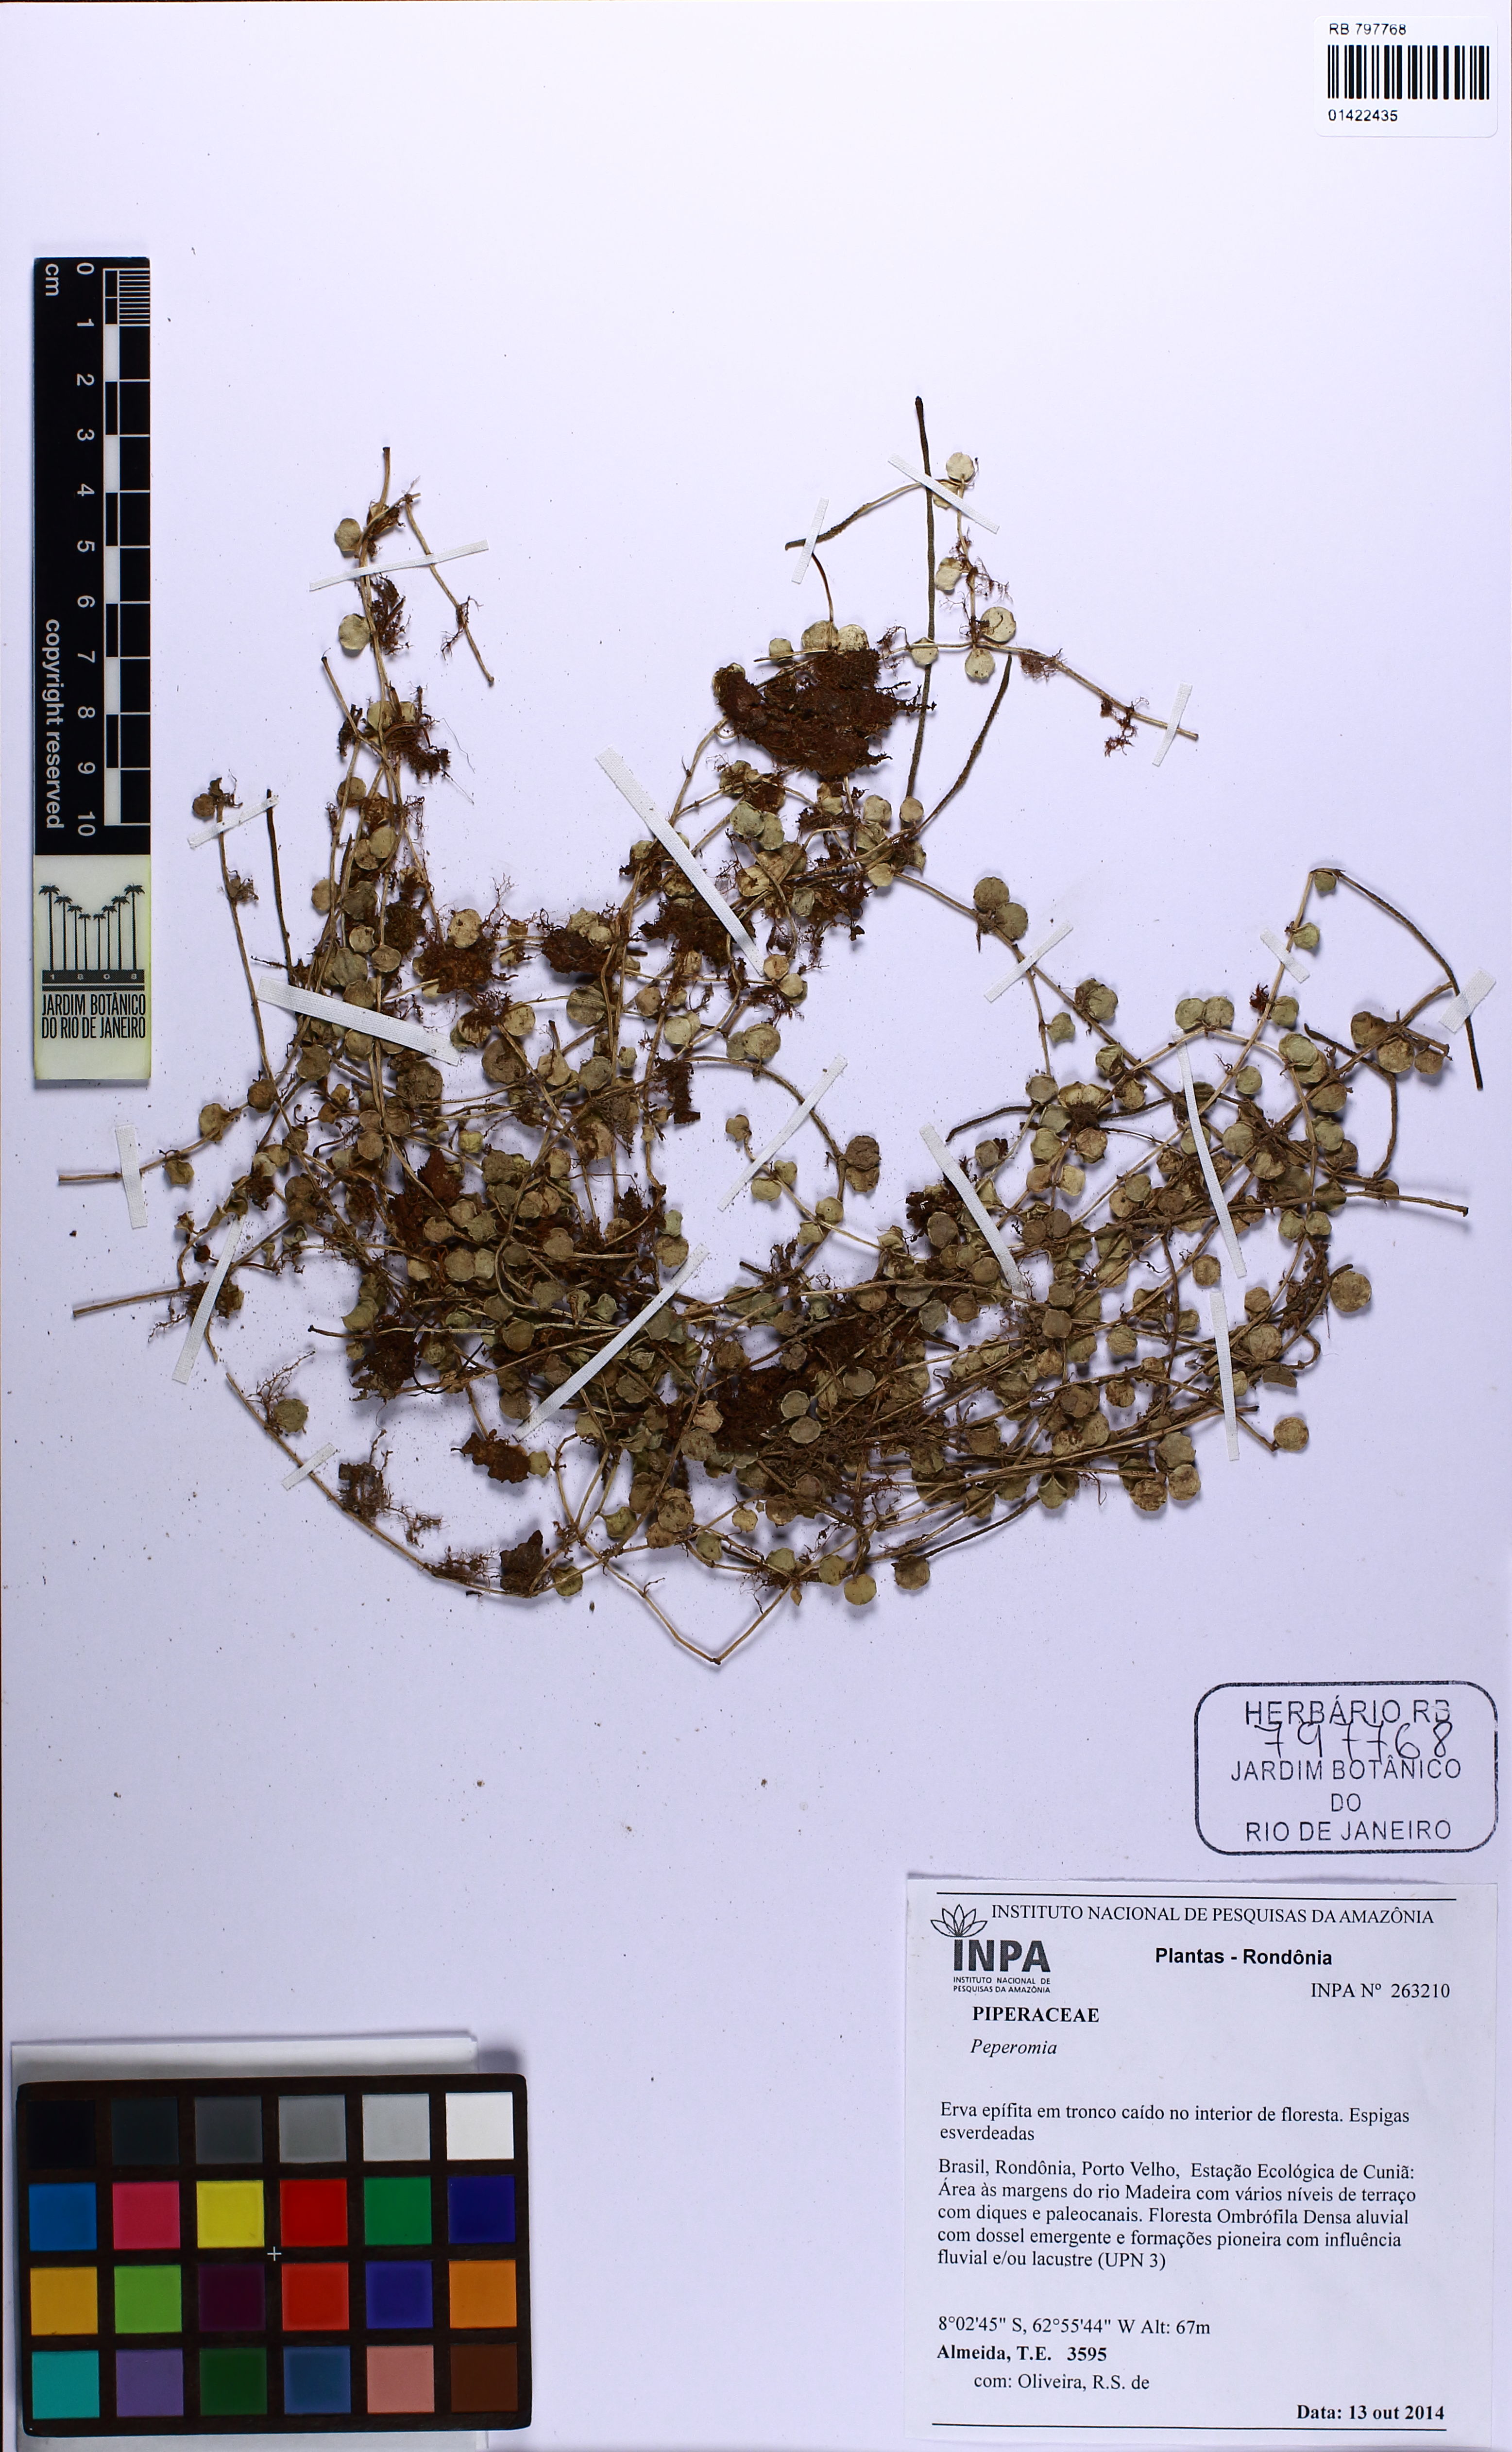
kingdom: Plantae
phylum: Tracheophyta
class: Magnoliopsida
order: Piperales
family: Piperaceae
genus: Peperomia
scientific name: Peperomia circinnata
